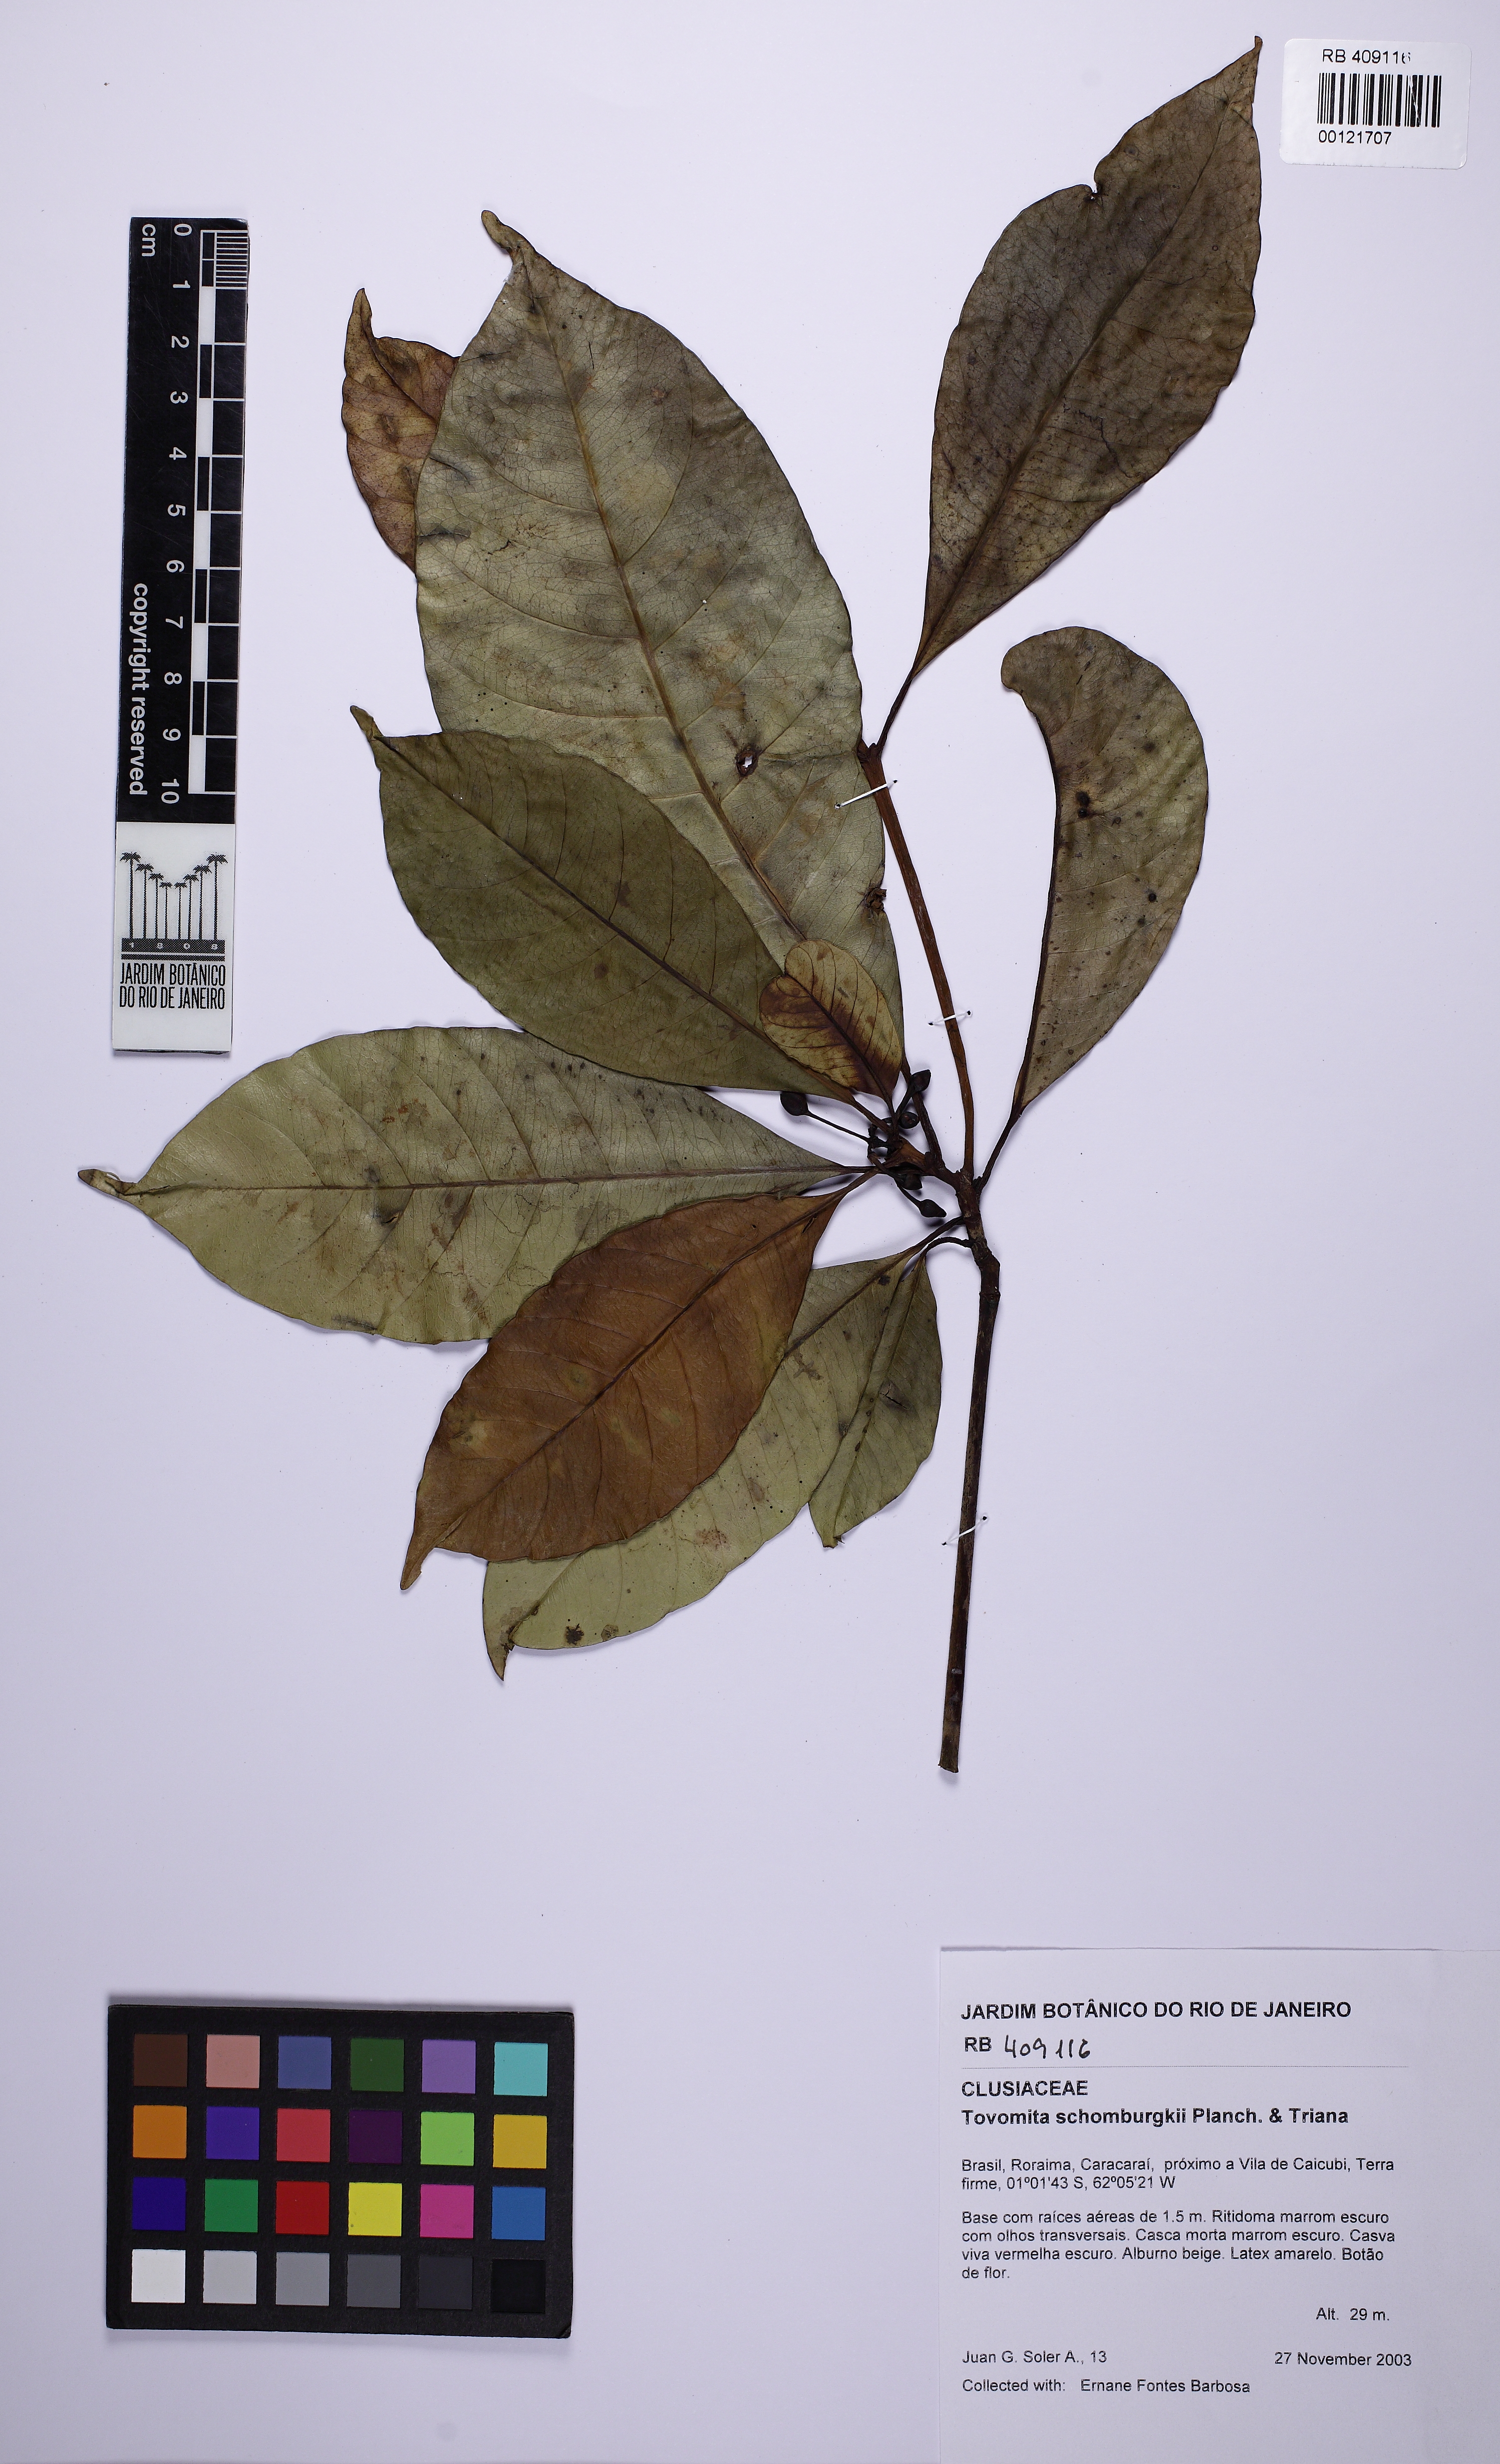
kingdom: Plantae
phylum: Tracheophyta
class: Magnoliopsida
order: Malpighiales
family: Clusiaceae
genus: Tovomita
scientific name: Tovomita schomburgkii
